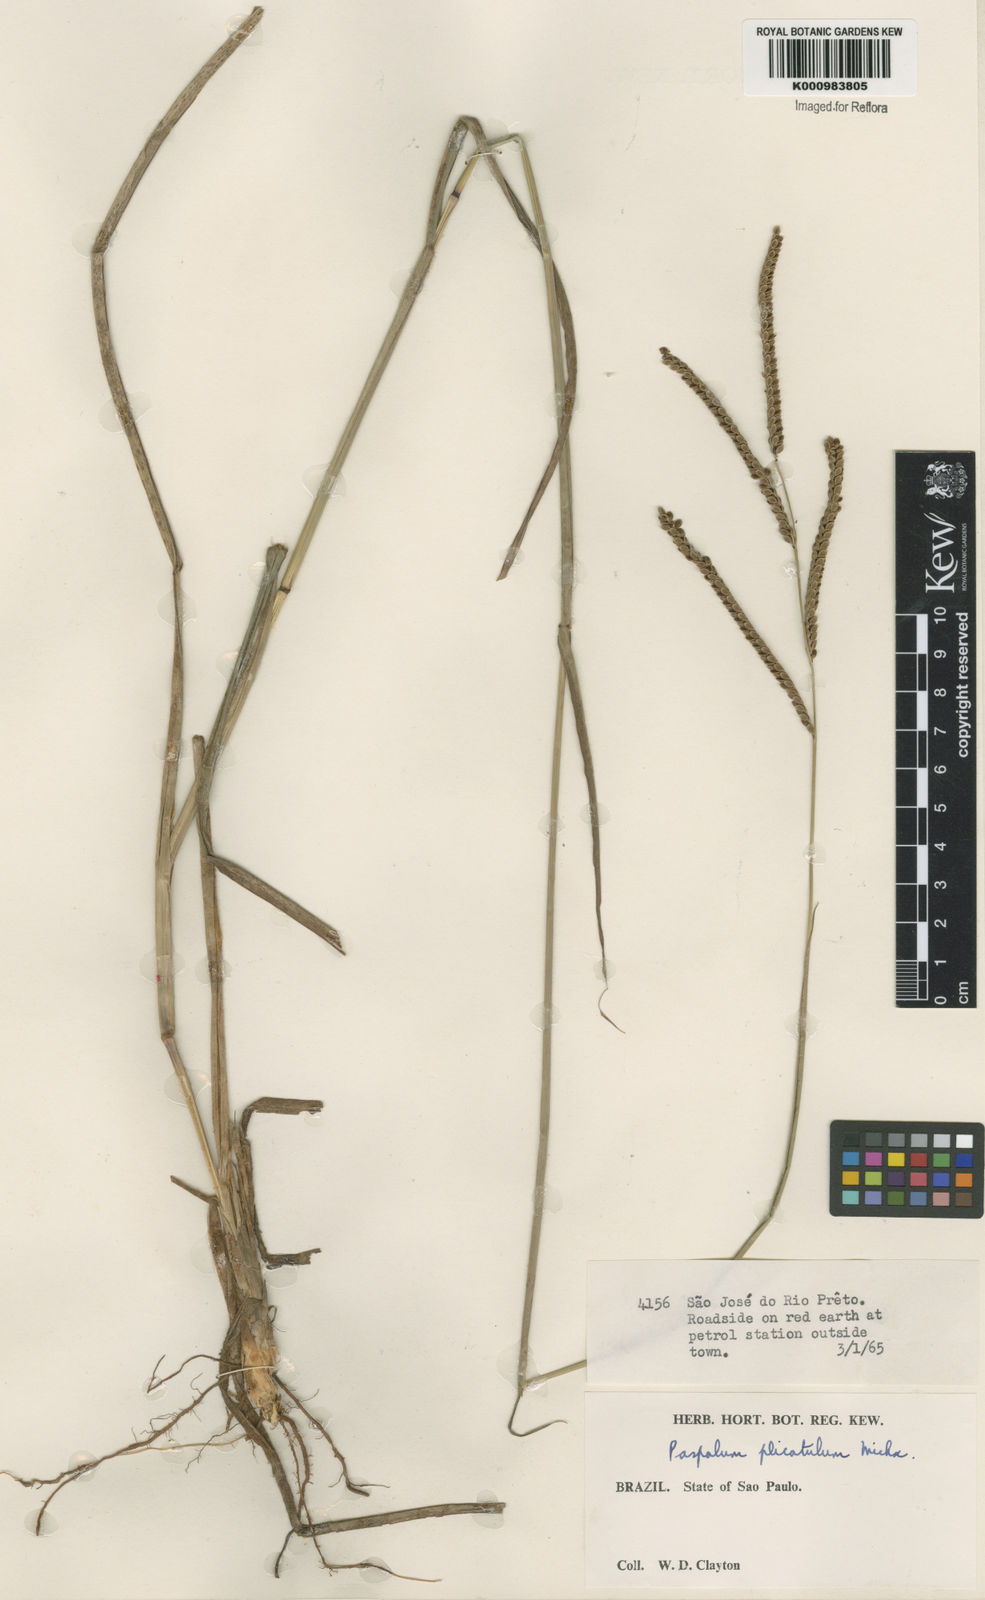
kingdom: Plantae
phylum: Tracheophyta
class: Liliopsida
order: Poales
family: Poaceae
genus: Paspalum
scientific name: Paspalum plicatulum
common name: Top paspalum
